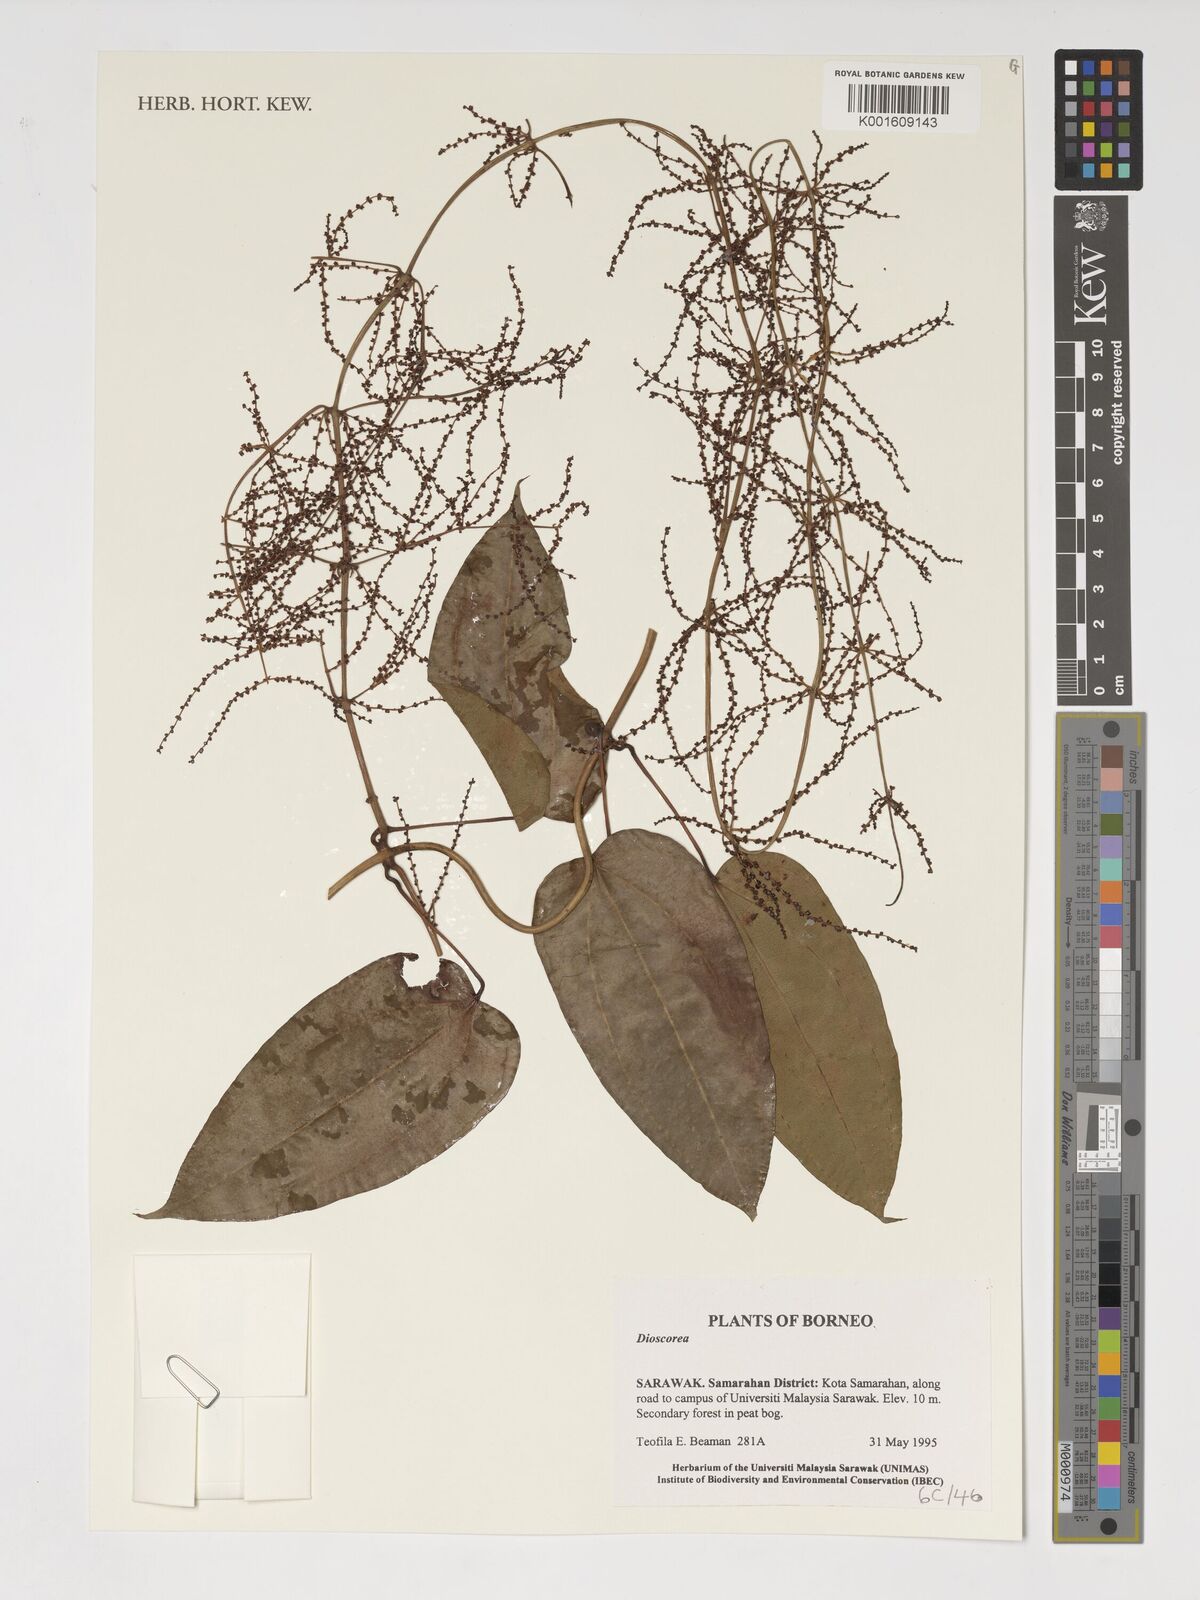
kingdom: Plantae
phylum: Tracheophyta
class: Liliopsida
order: Dioscoreales
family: Dioscoreaceae
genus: Dioscorea
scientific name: Dioscorea
